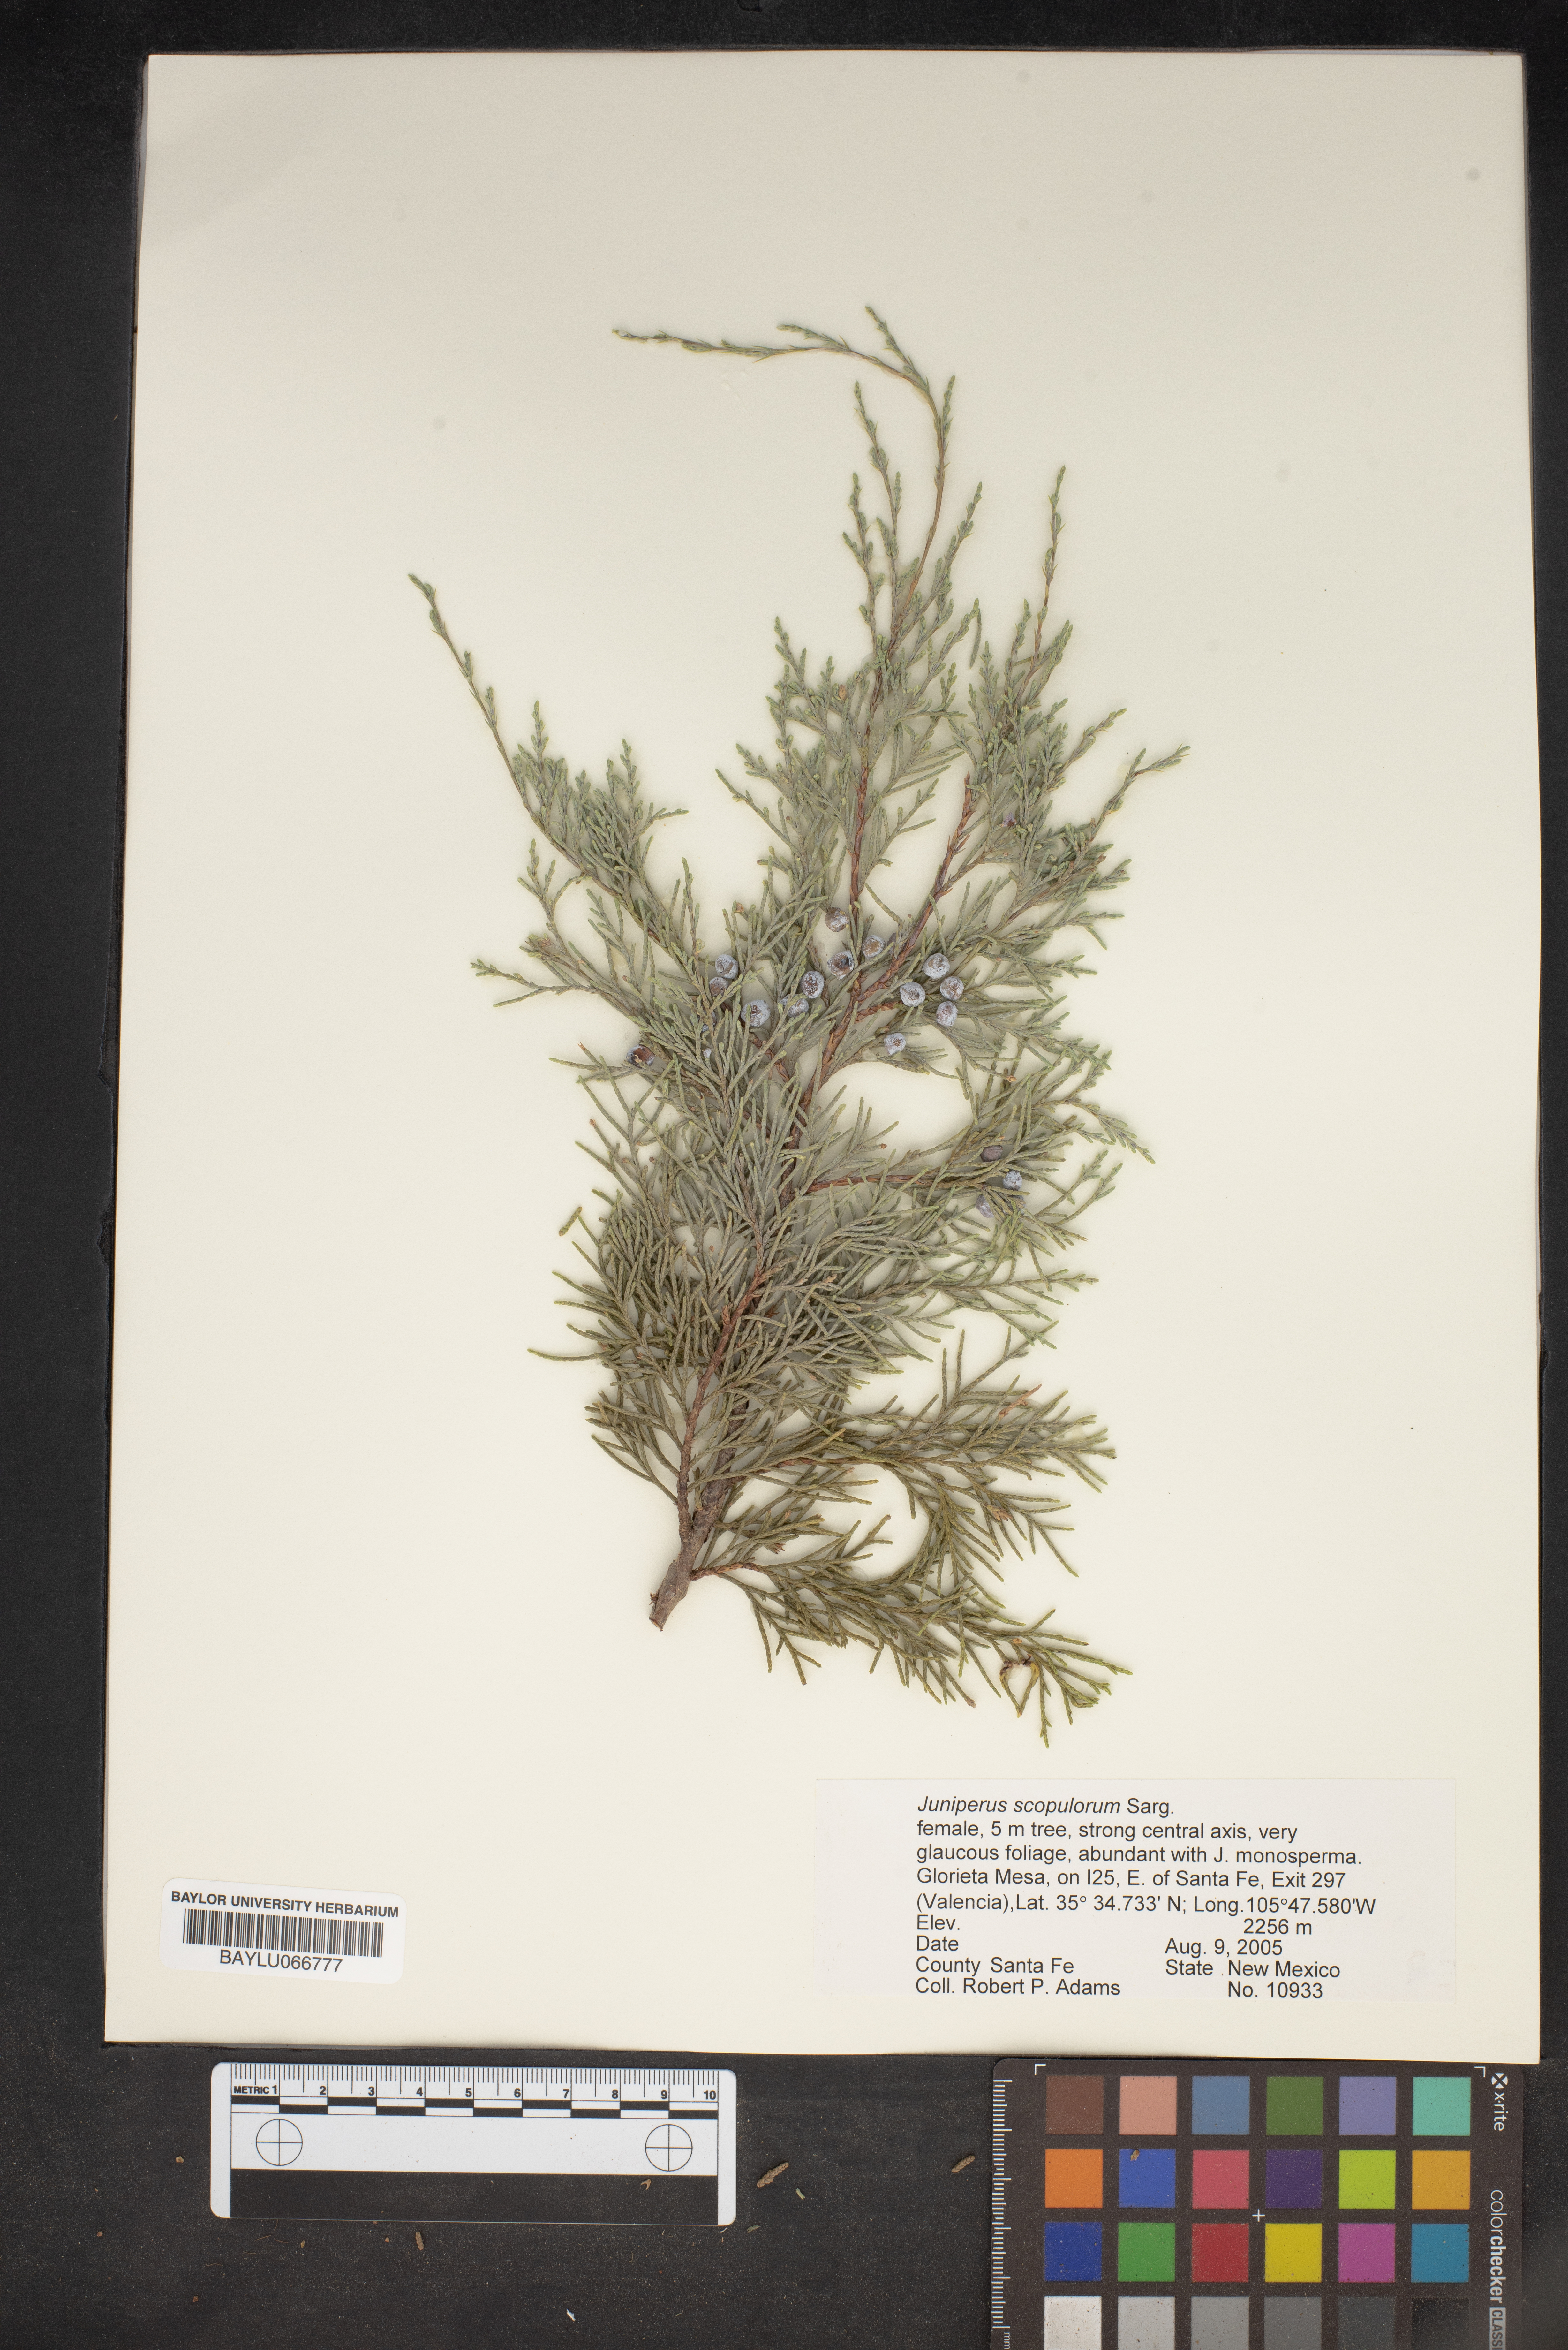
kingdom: Plantae
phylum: Tracheophyta
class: Pinopsida
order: Pinales
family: Cupressaceae
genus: Juniperus
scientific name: Juniperus scopulorum
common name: Rocky mountain juniper
